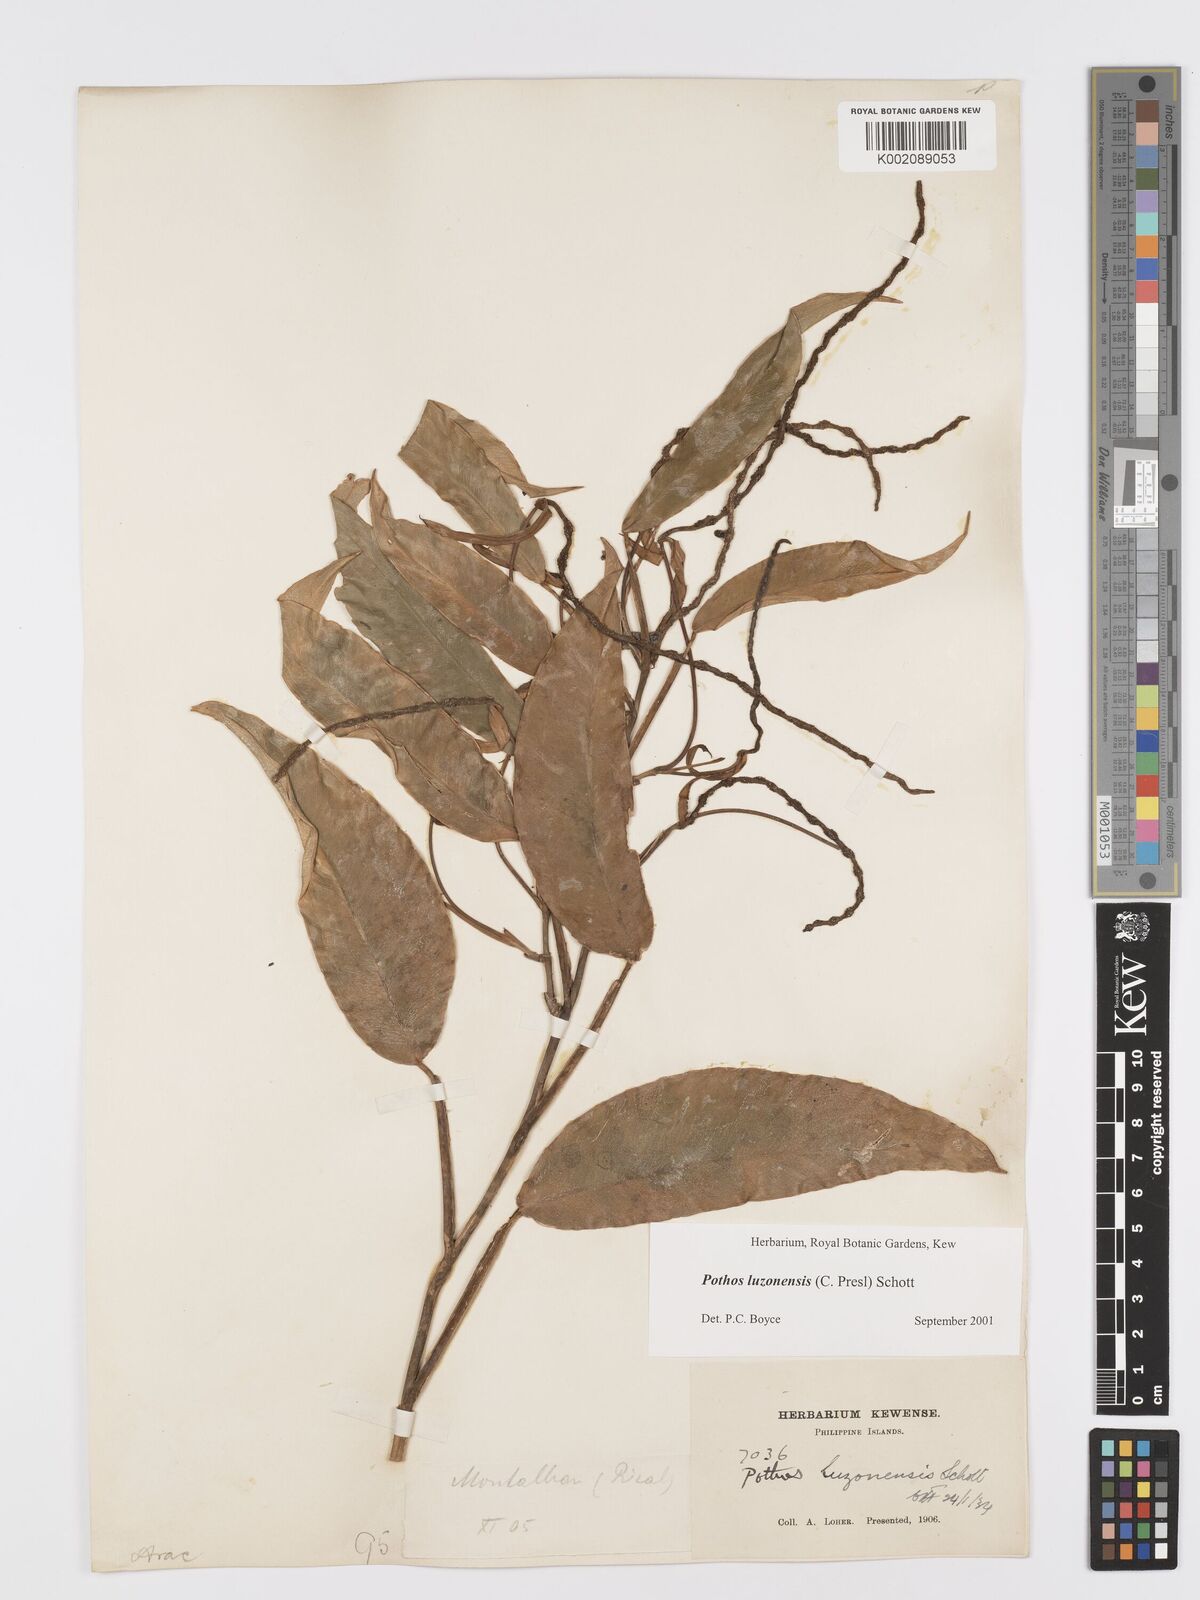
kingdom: Plantae
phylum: Tracheophyta
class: Liliopsida
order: Alismatales
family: Araceae
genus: Pothos
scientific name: Pothos luzonensis
